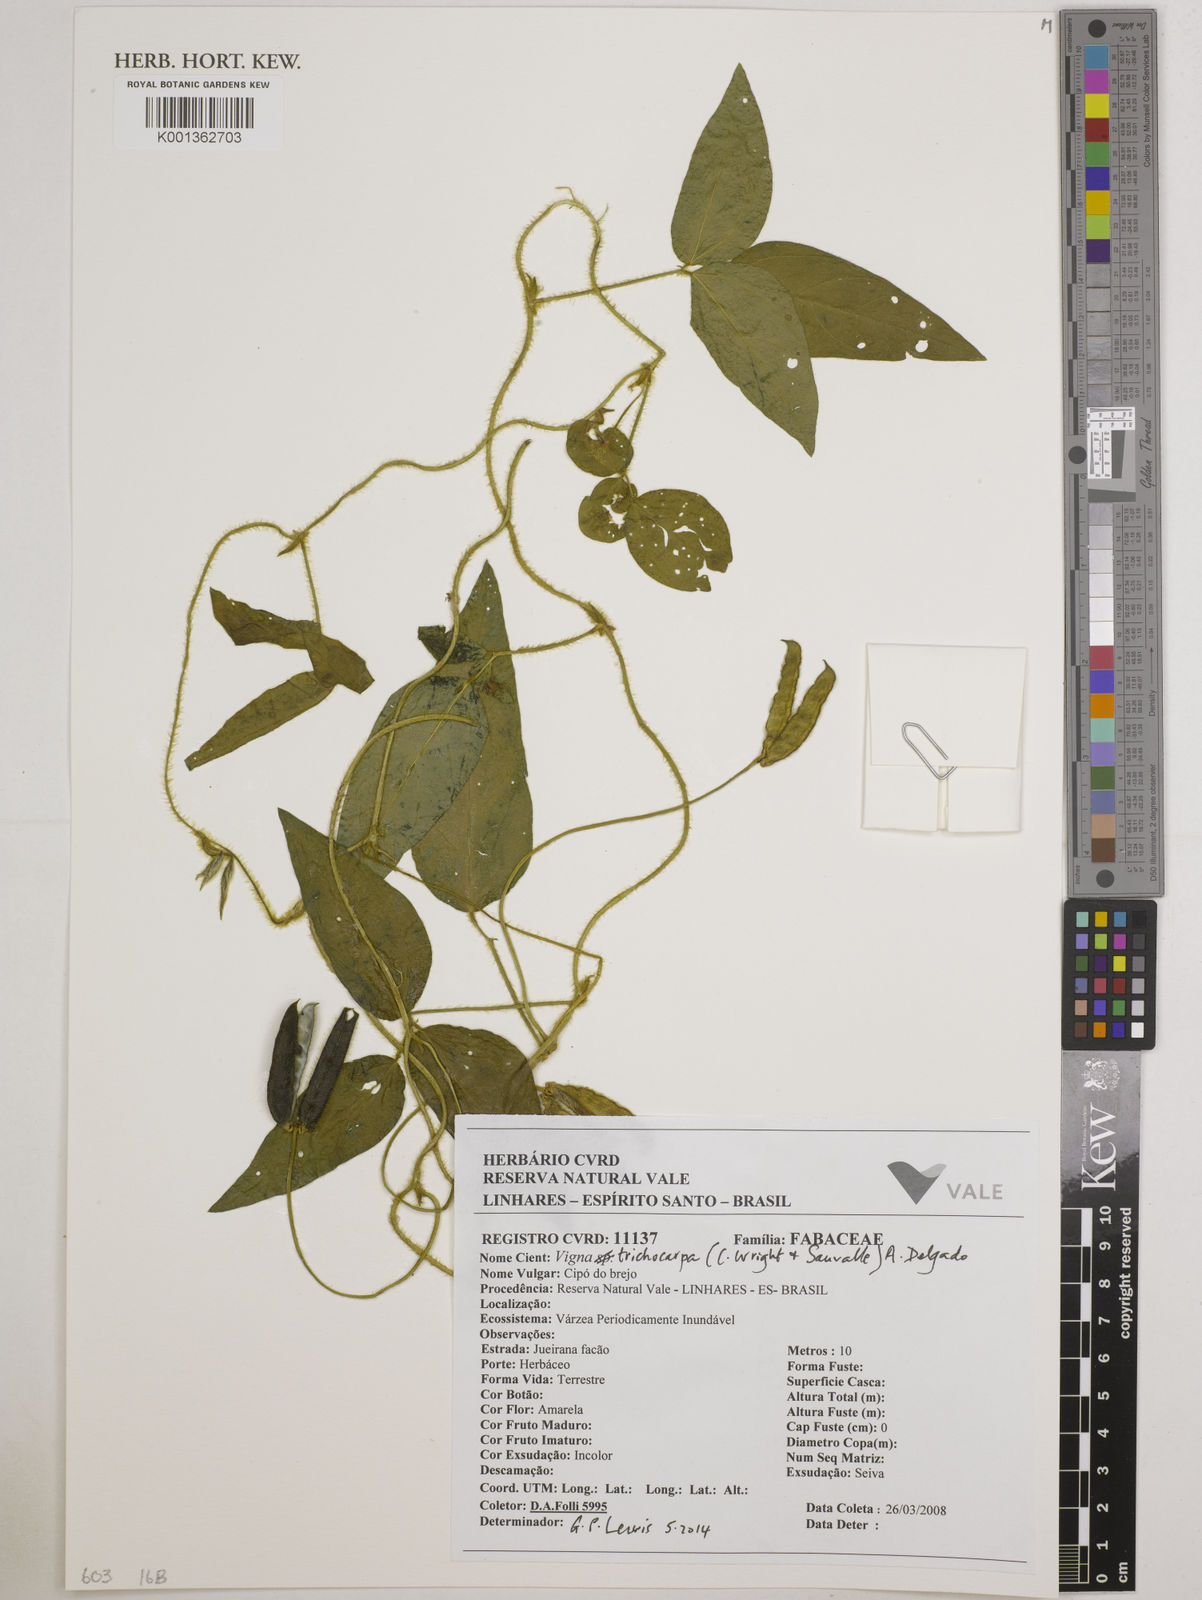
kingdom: Plantae
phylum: Tracheophyta
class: Magnoliopsida
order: Fabales
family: Fabaceae
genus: Vigna
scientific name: Vigna trichocarpa
